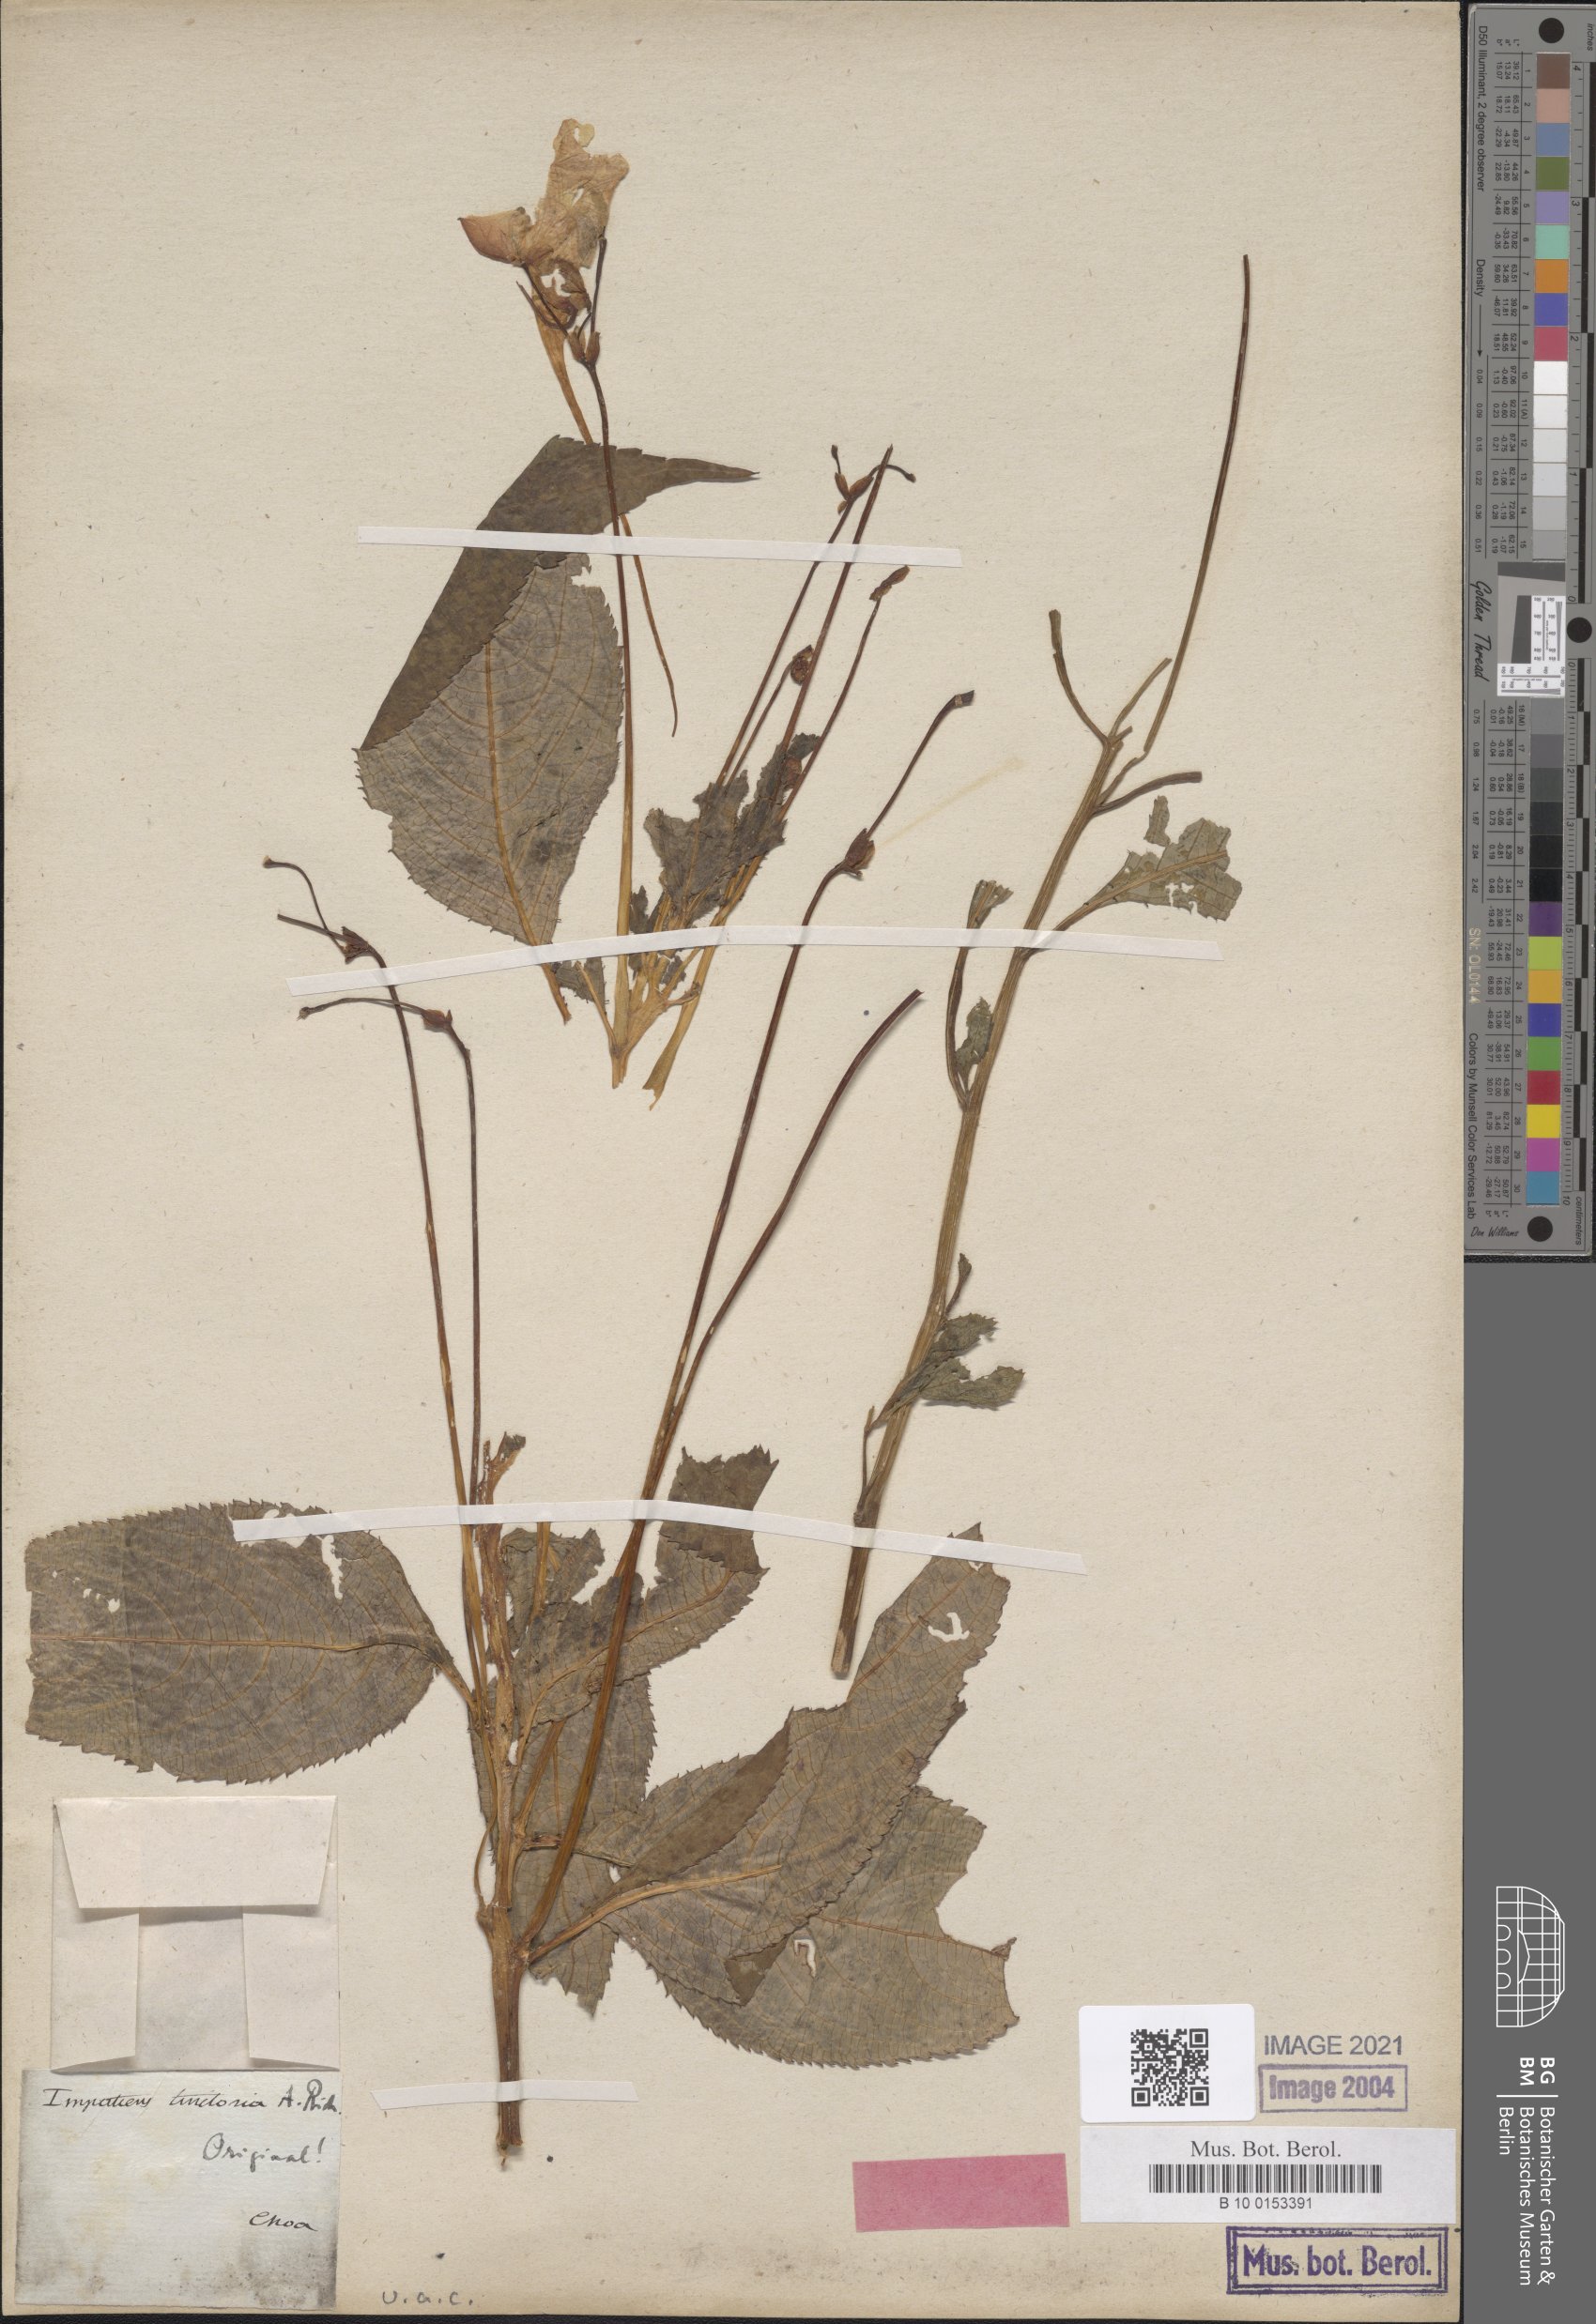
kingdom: Plantae
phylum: Tracheophyta
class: Magnoliopsida
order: Ericales
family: Balsaminaceae
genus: Impatiens
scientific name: Impatiens tinctoria
